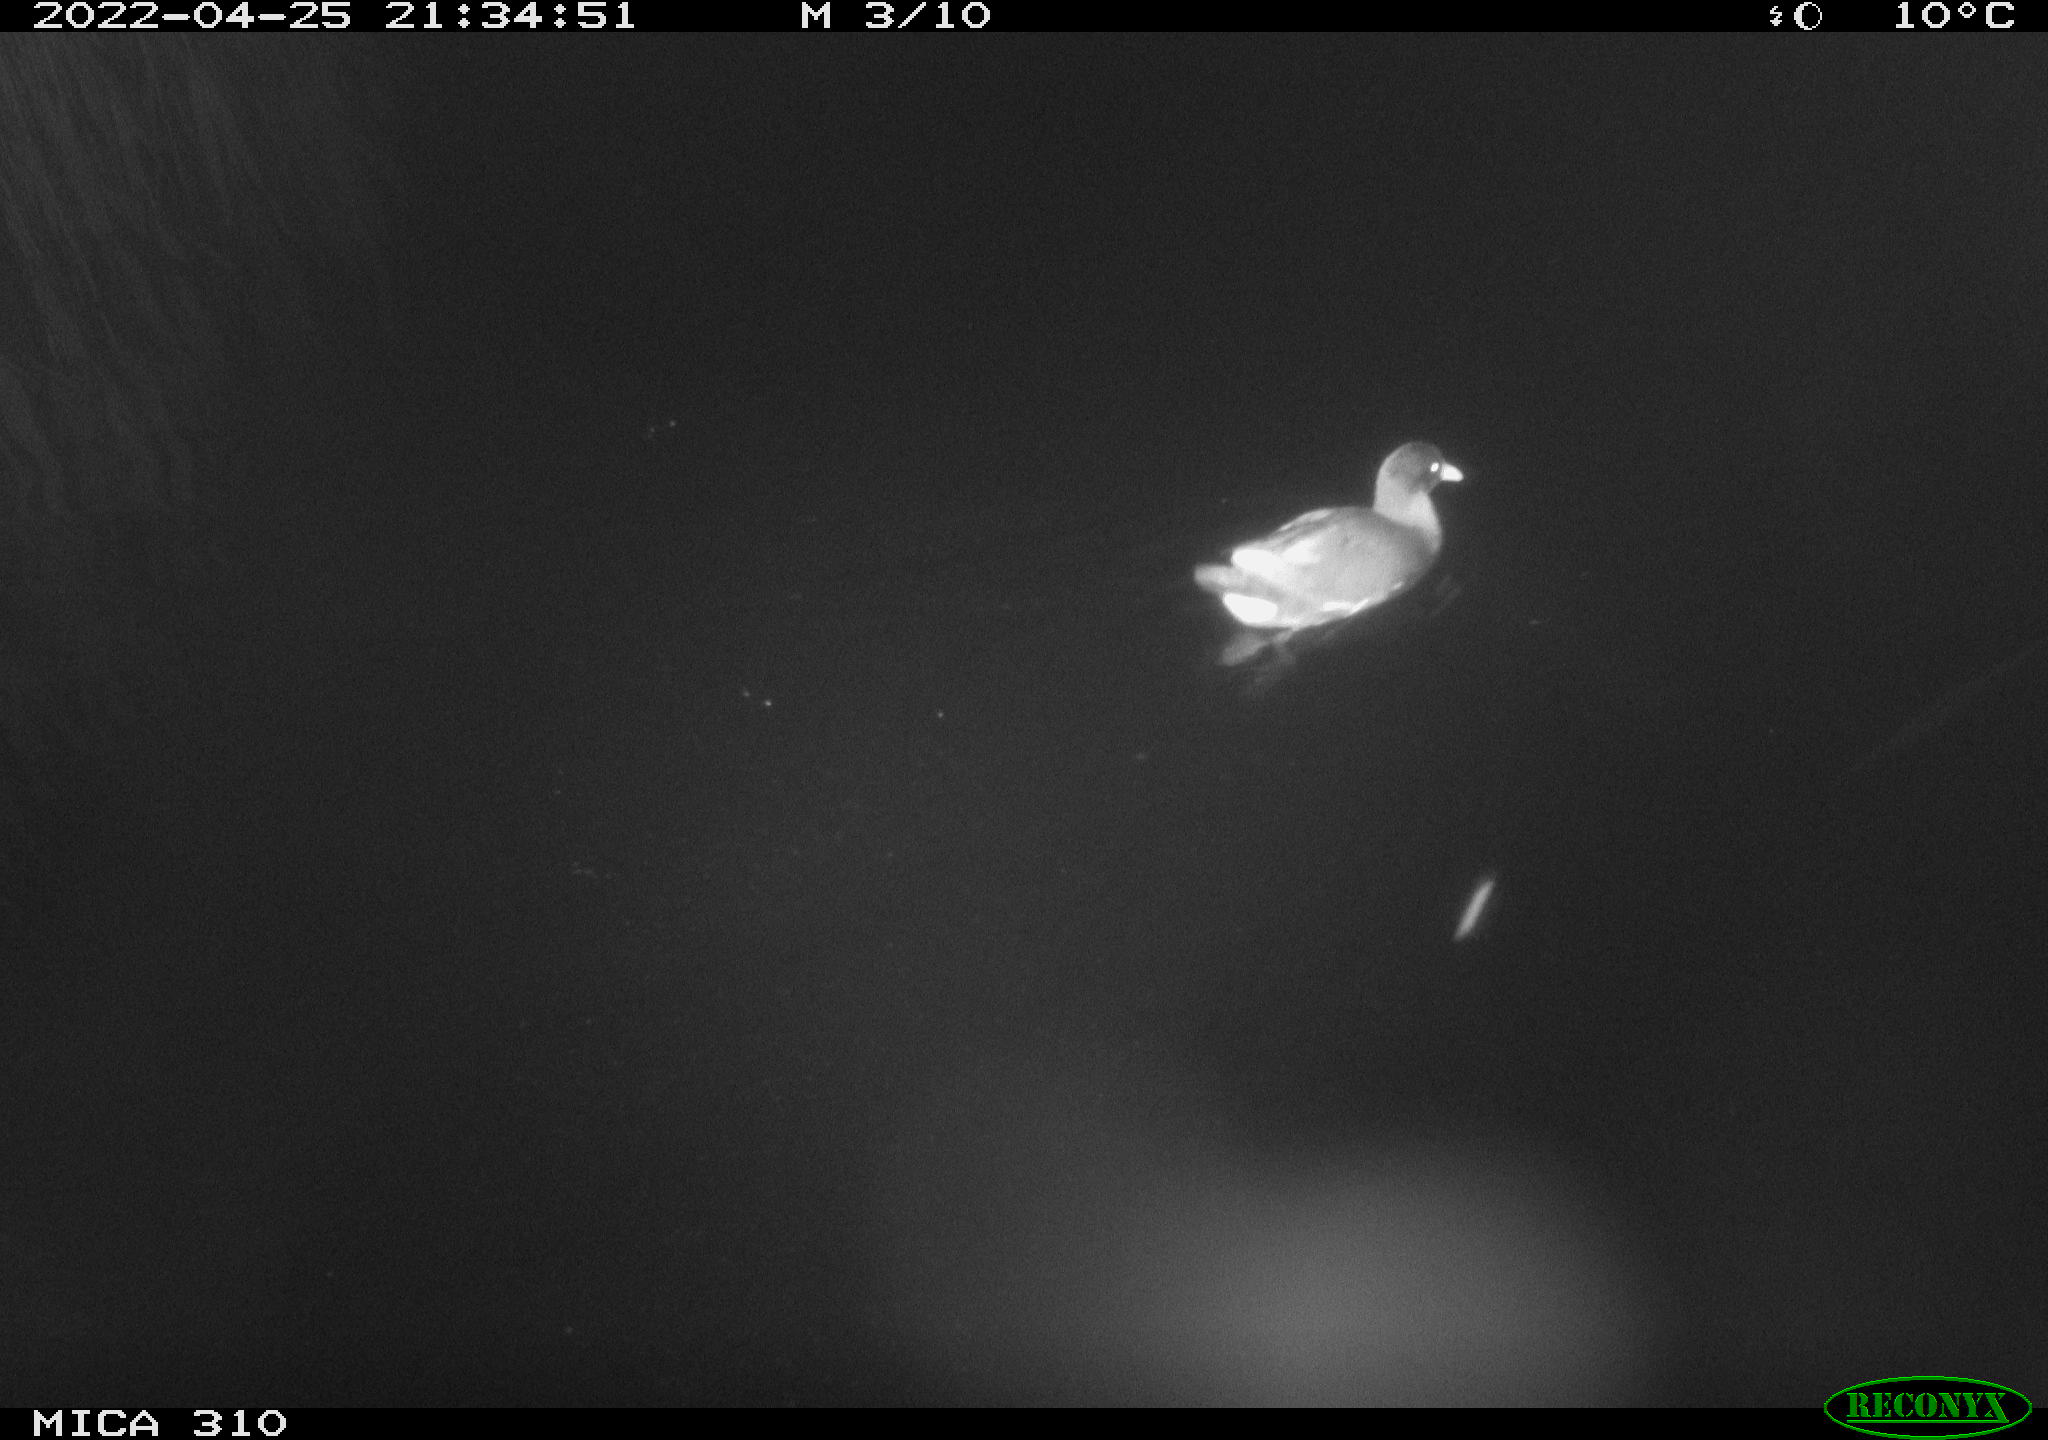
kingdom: Animalia
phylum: Chordata
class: Aves
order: Gruiformes
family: Rallidae
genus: Gallinula
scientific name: Gallinula chloropus
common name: Common moorhen
